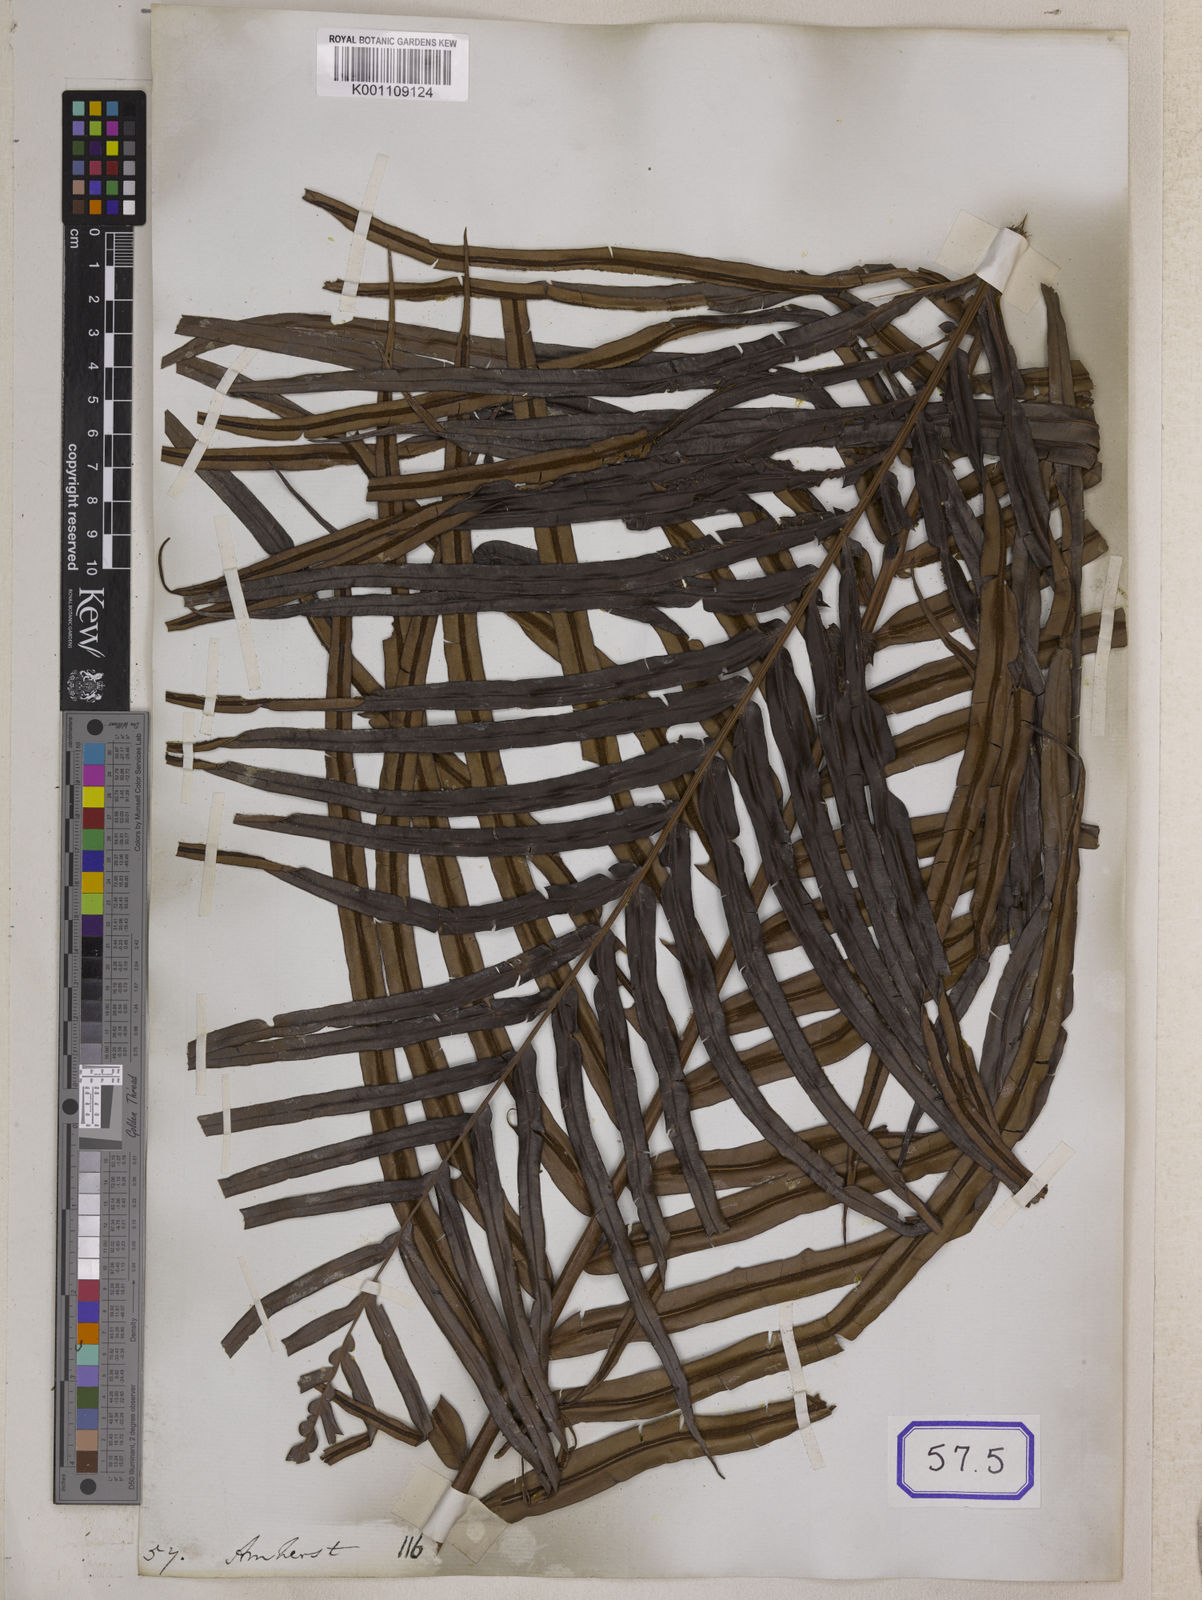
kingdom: Plantae
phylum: Tracheophyta
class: Polypodiopsida
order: Polypodiales
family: Blechnaceae
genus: Blechnopsis
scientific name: Blechnopsis orientalis
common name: Oriental blechnum
